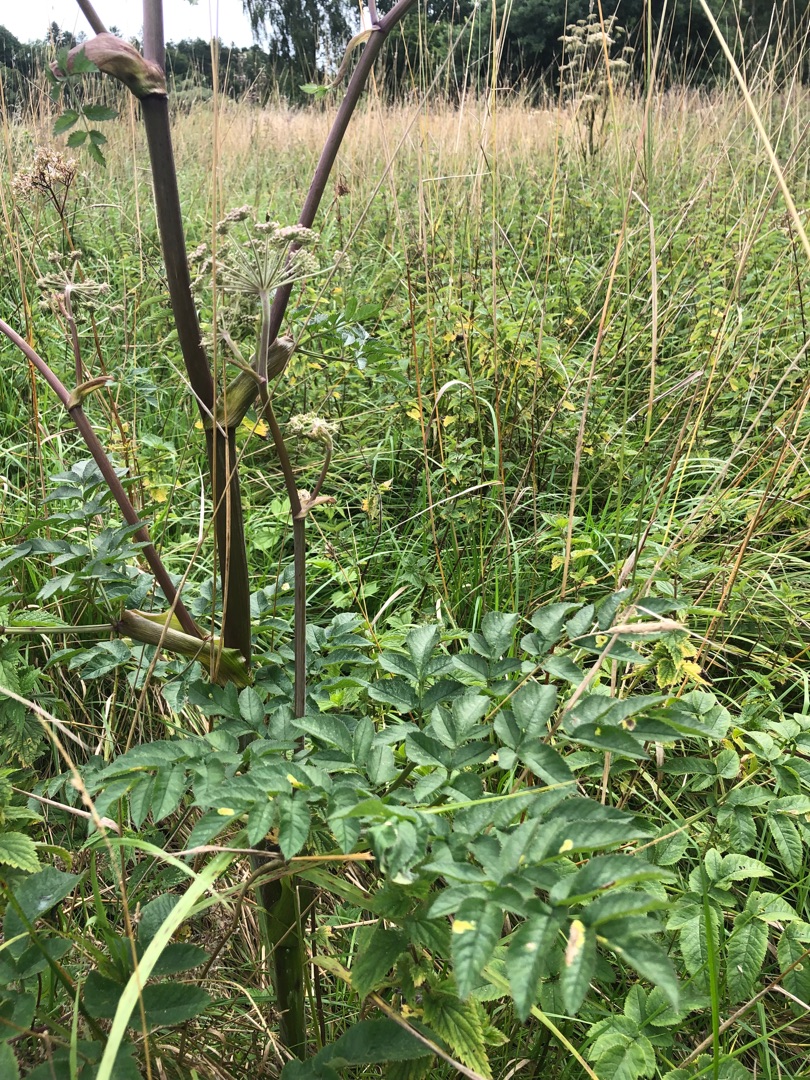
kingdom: Plantae
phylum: Tracheophyta
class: Magnoliopsida
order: Apiales
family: Apiaceae
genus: Angelica
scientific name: Angelica sylvestris
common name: Angelik
